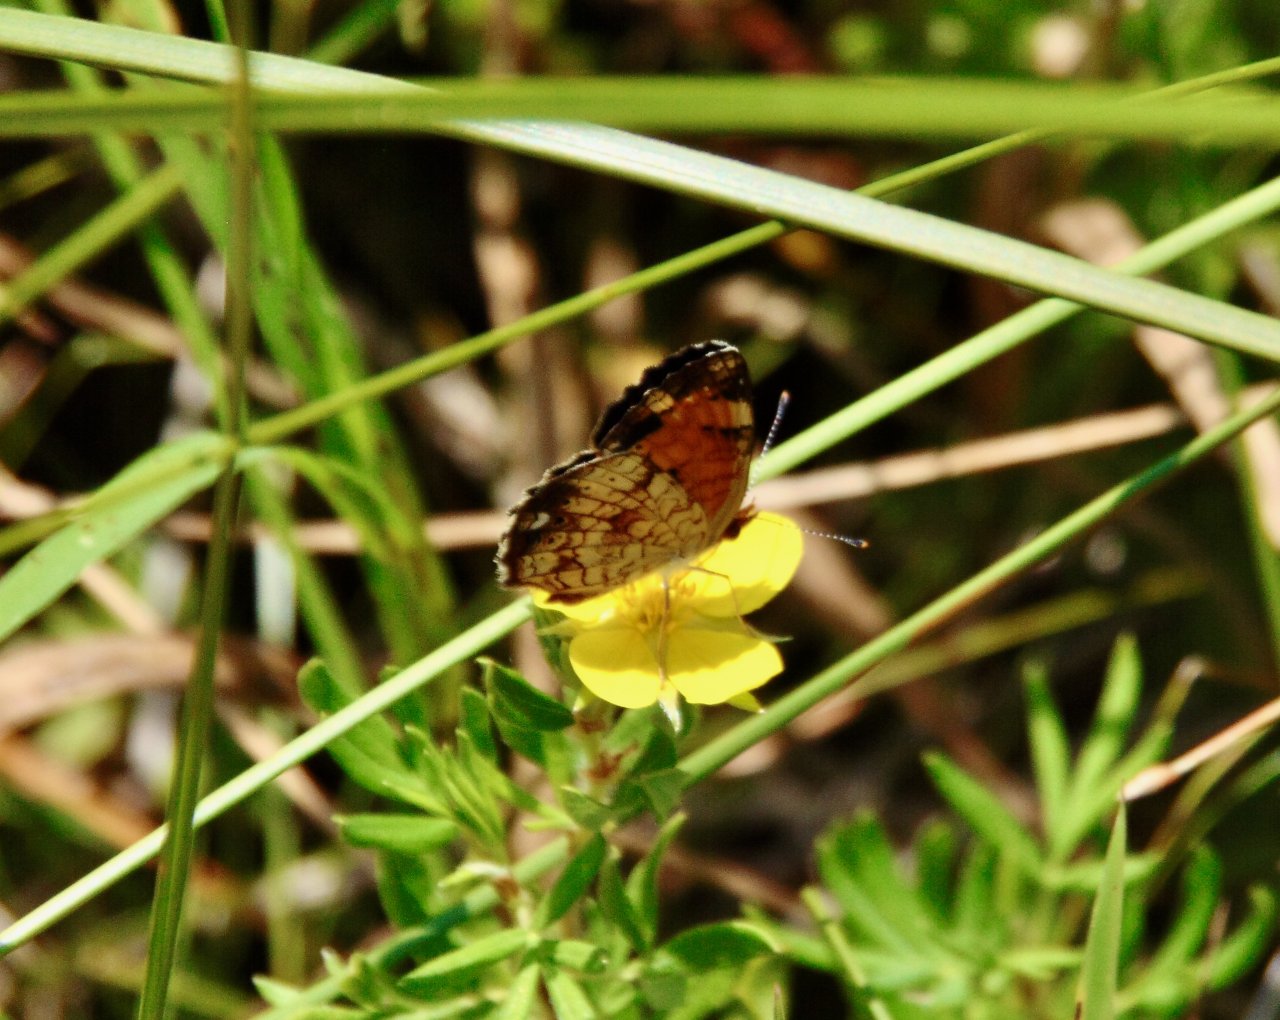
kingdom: Animalia
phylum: Arthropoda
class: Insecta
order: Lepidoptera
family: Nymphalidae
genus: Phyciodes
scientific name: Phyciodes tharos
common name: Pearl Crescent
